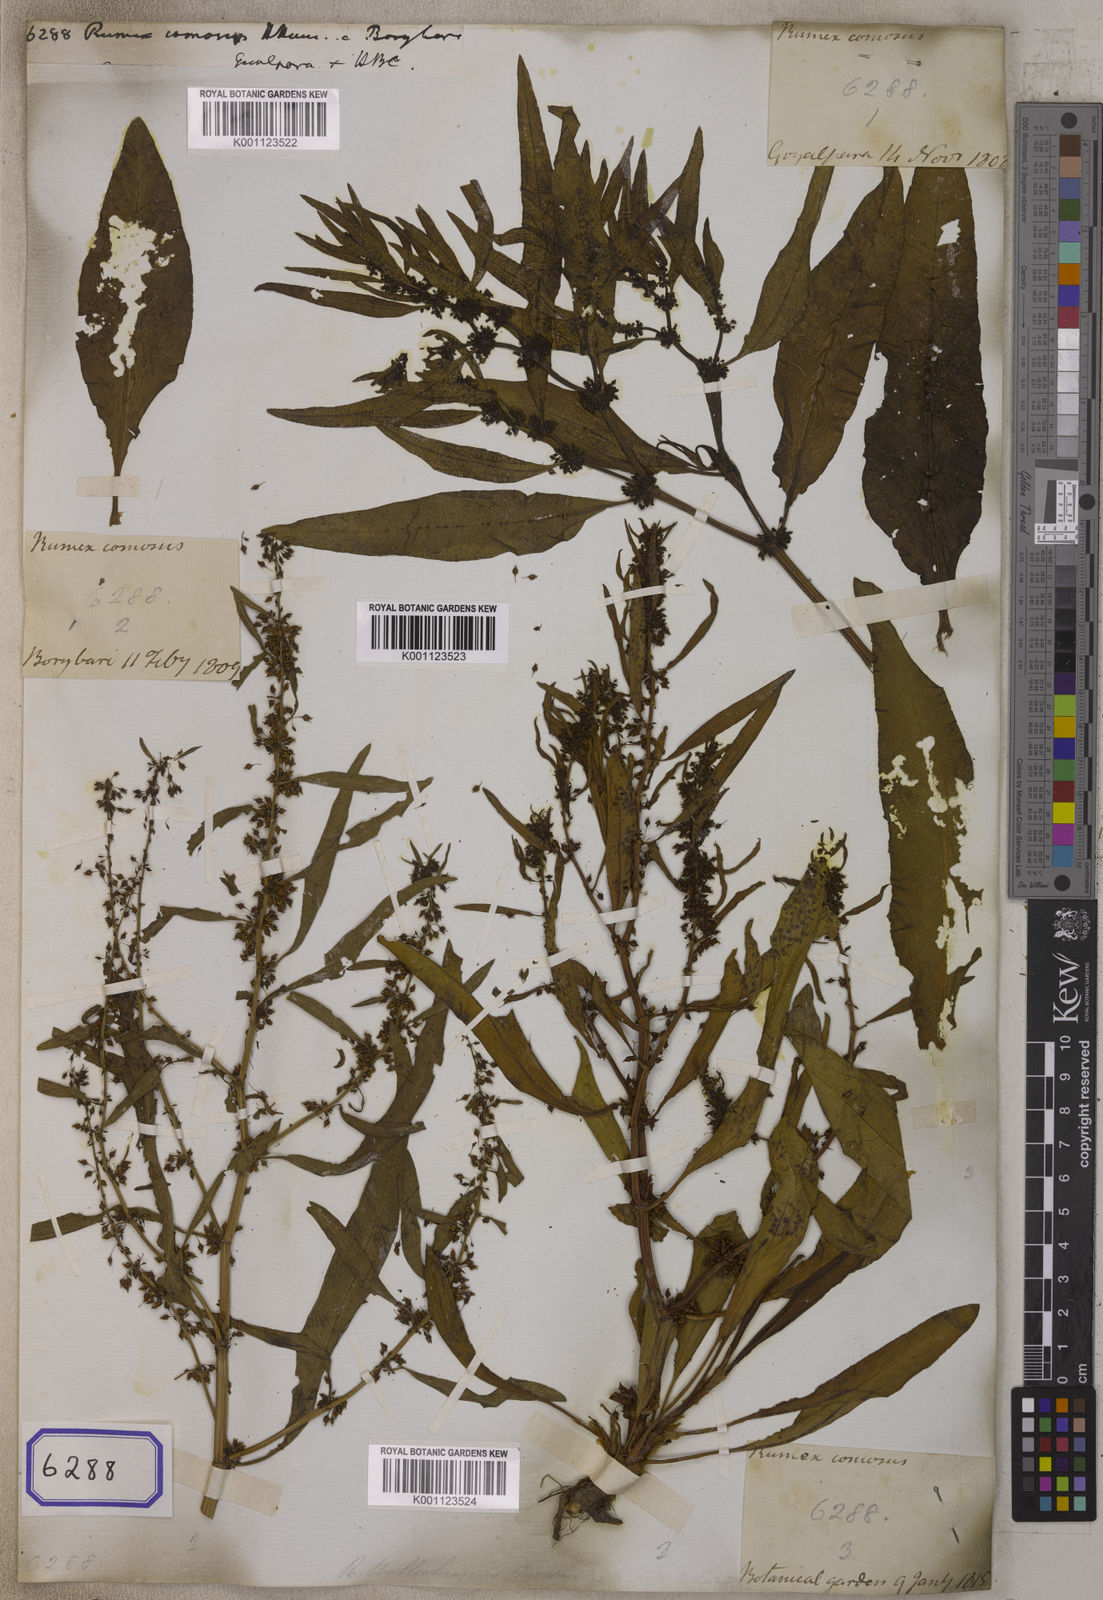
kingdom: Plantae
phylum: Tracheophyta
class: Magnoliopsida
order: Caryophyllales
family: Polygonaceae
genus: Rumex
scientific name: Rumex
